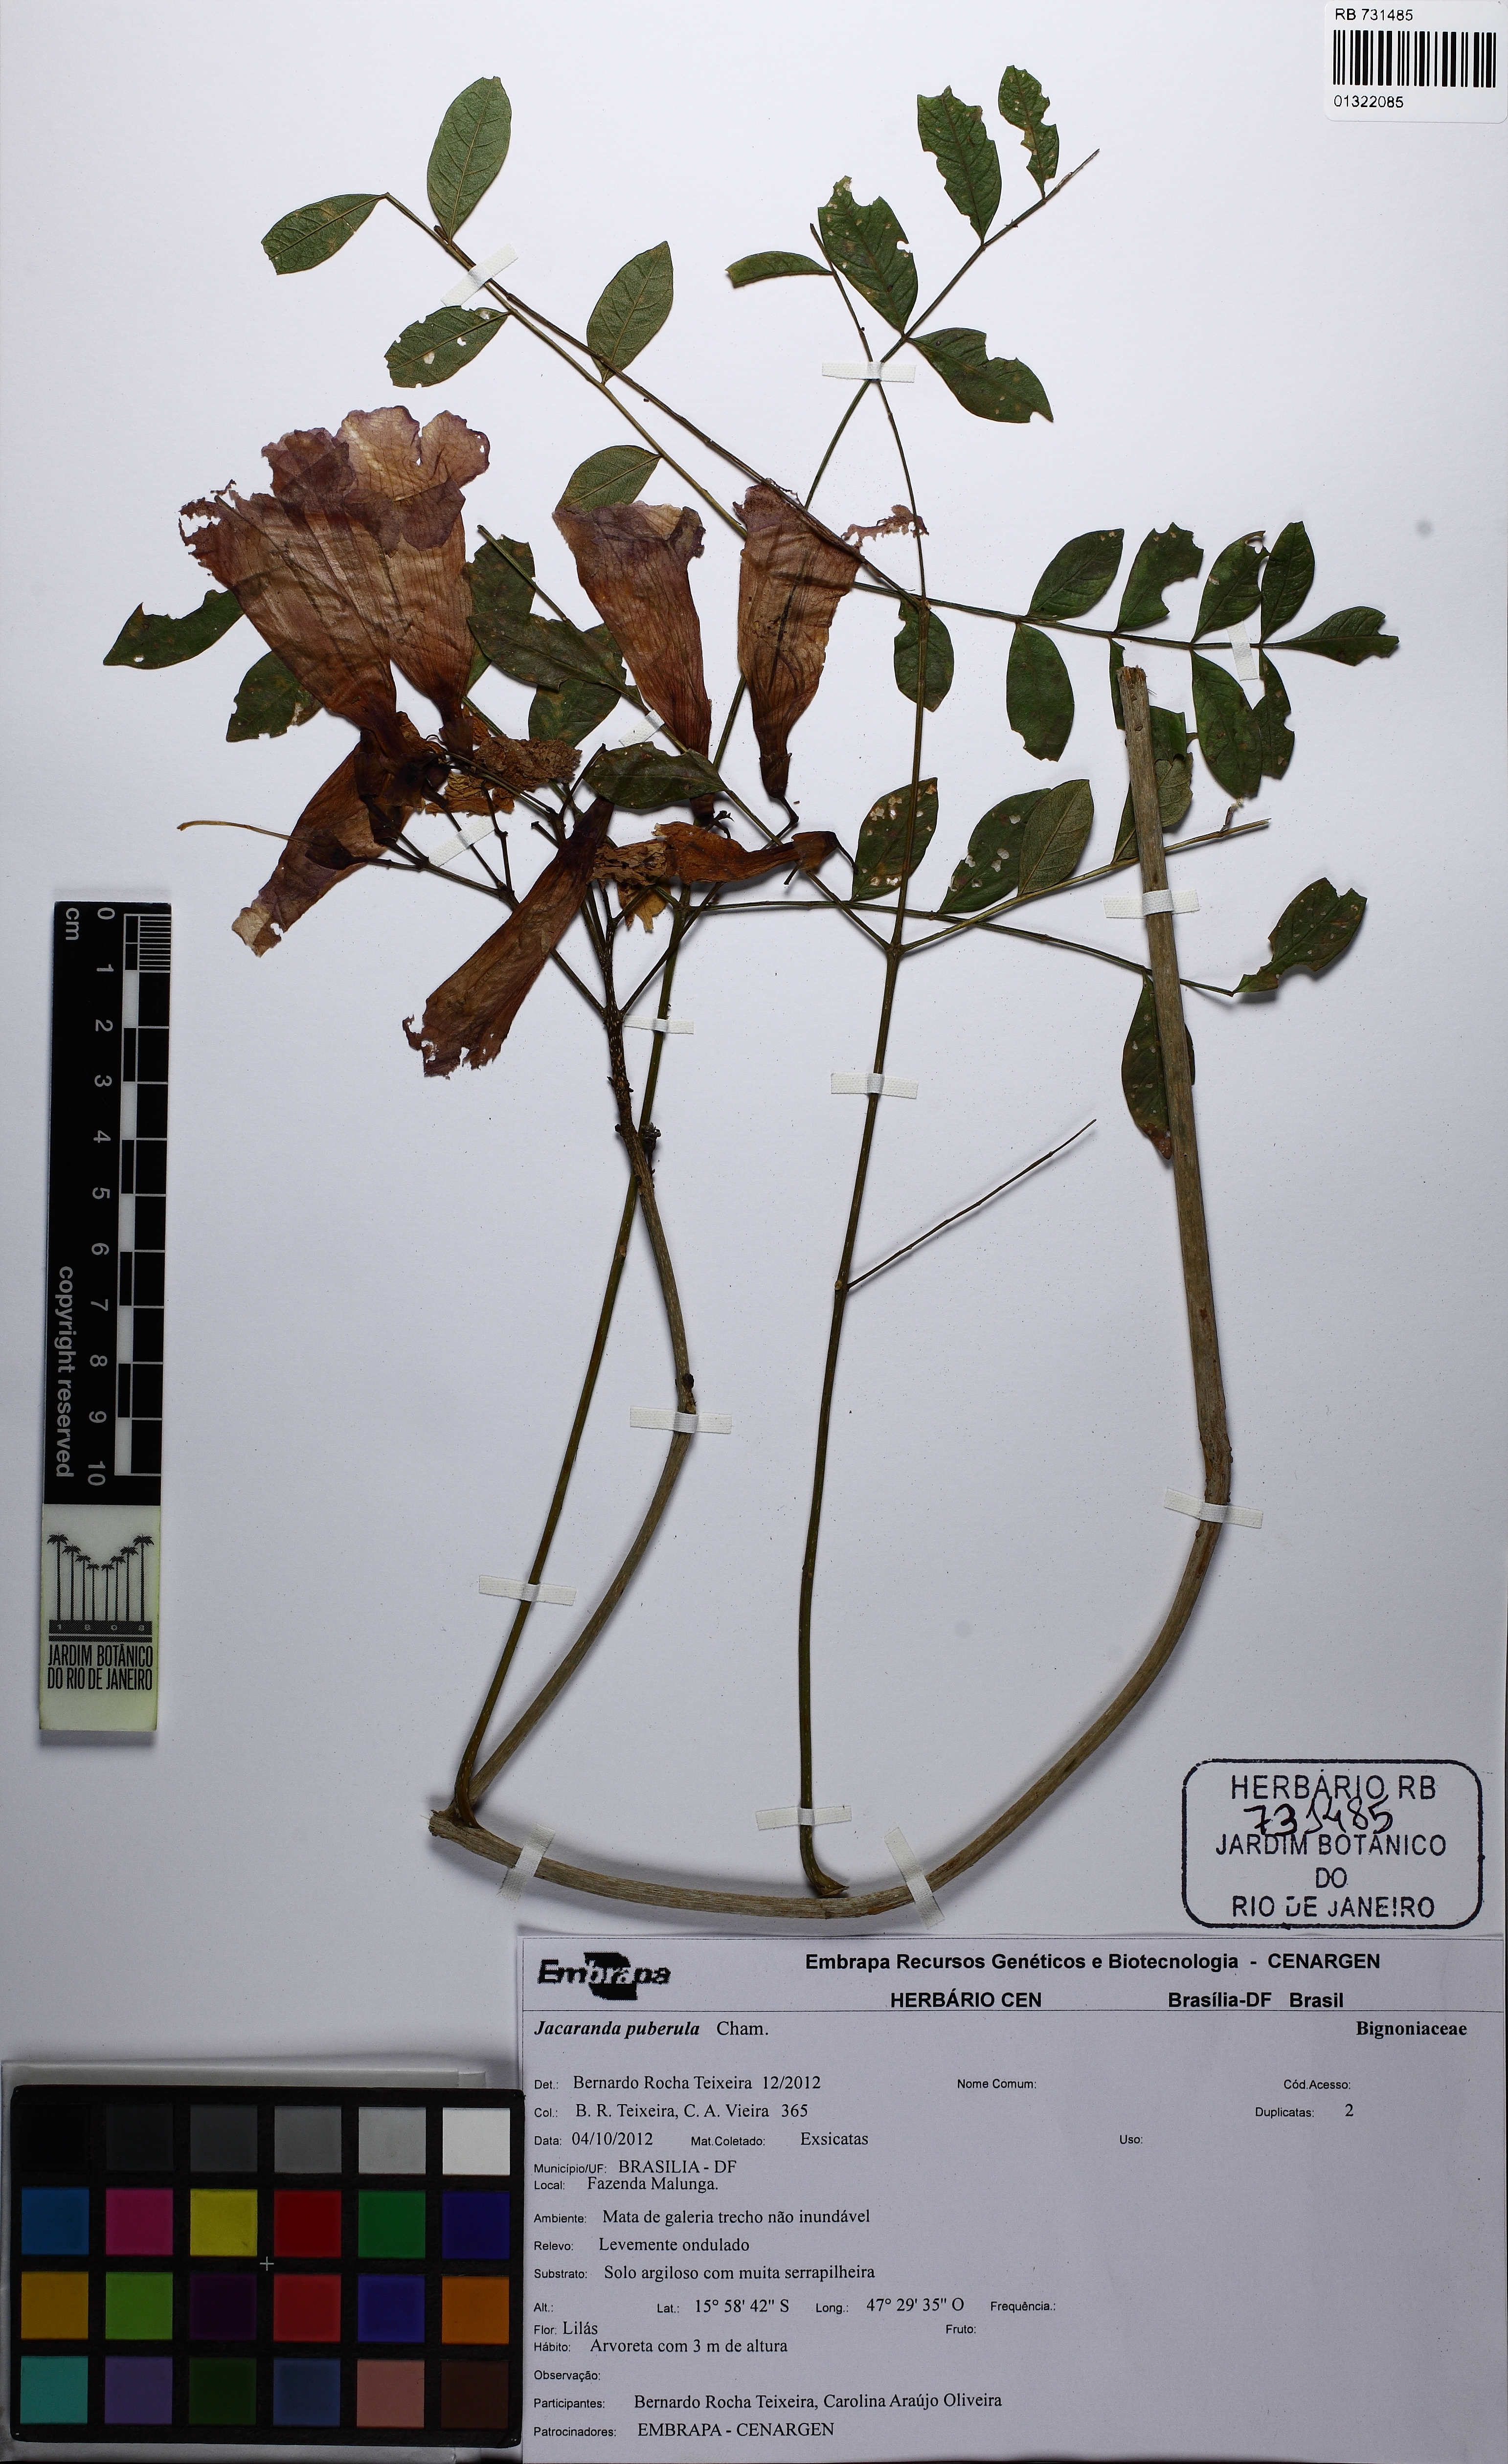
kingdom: Plantae
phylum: Tracheophyta
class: Magnoliopsida
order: Lamiales
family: Bignoniaceae
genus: Jacaranda
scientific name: Jacaranda puberula
